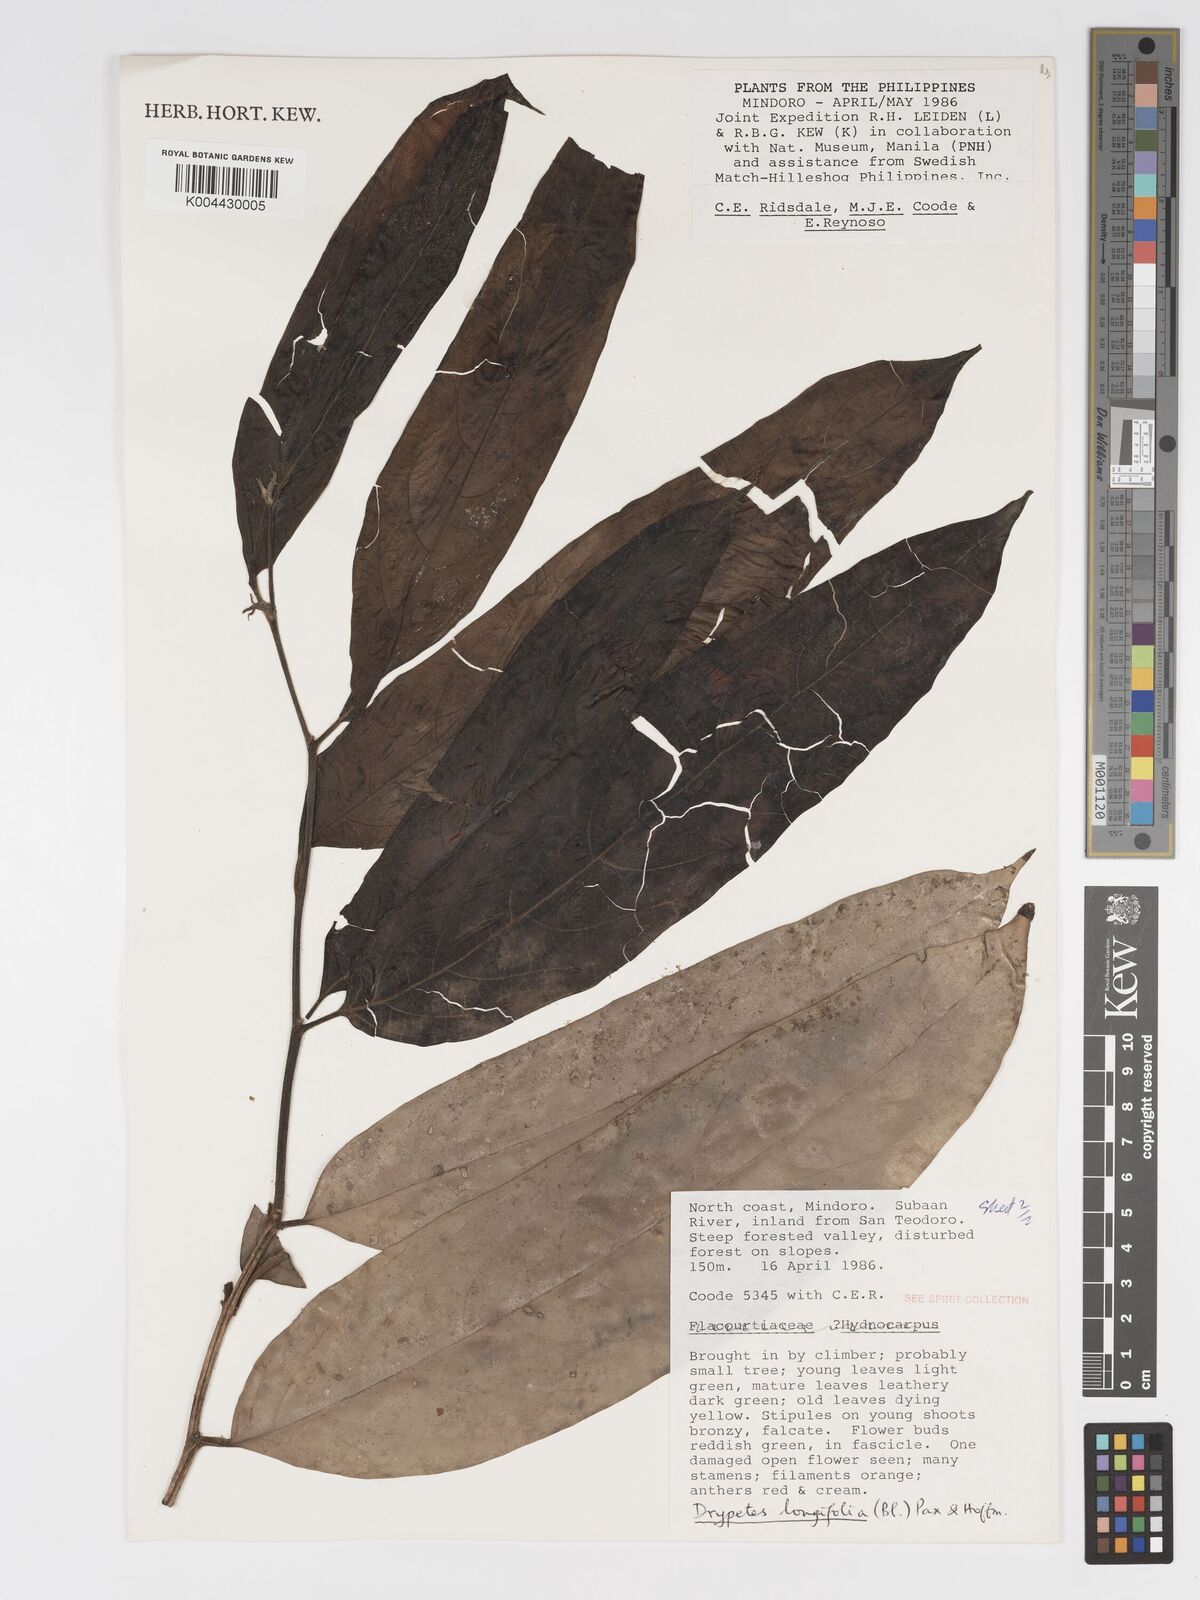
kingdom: Plantae
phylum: Tracheophyta
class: Magnoliopsida
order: Malpighiales
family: Putranjivaceae
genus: Drypetes
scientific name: Drypetes longifolia
